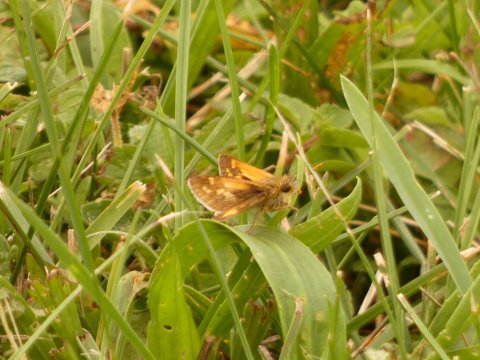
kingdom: Animalia
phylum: Arthropoda
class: Insecta
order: Lepidoptera
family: Hesperiidae
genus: Polites
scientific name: Polites coras
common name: Peck's Skipper
